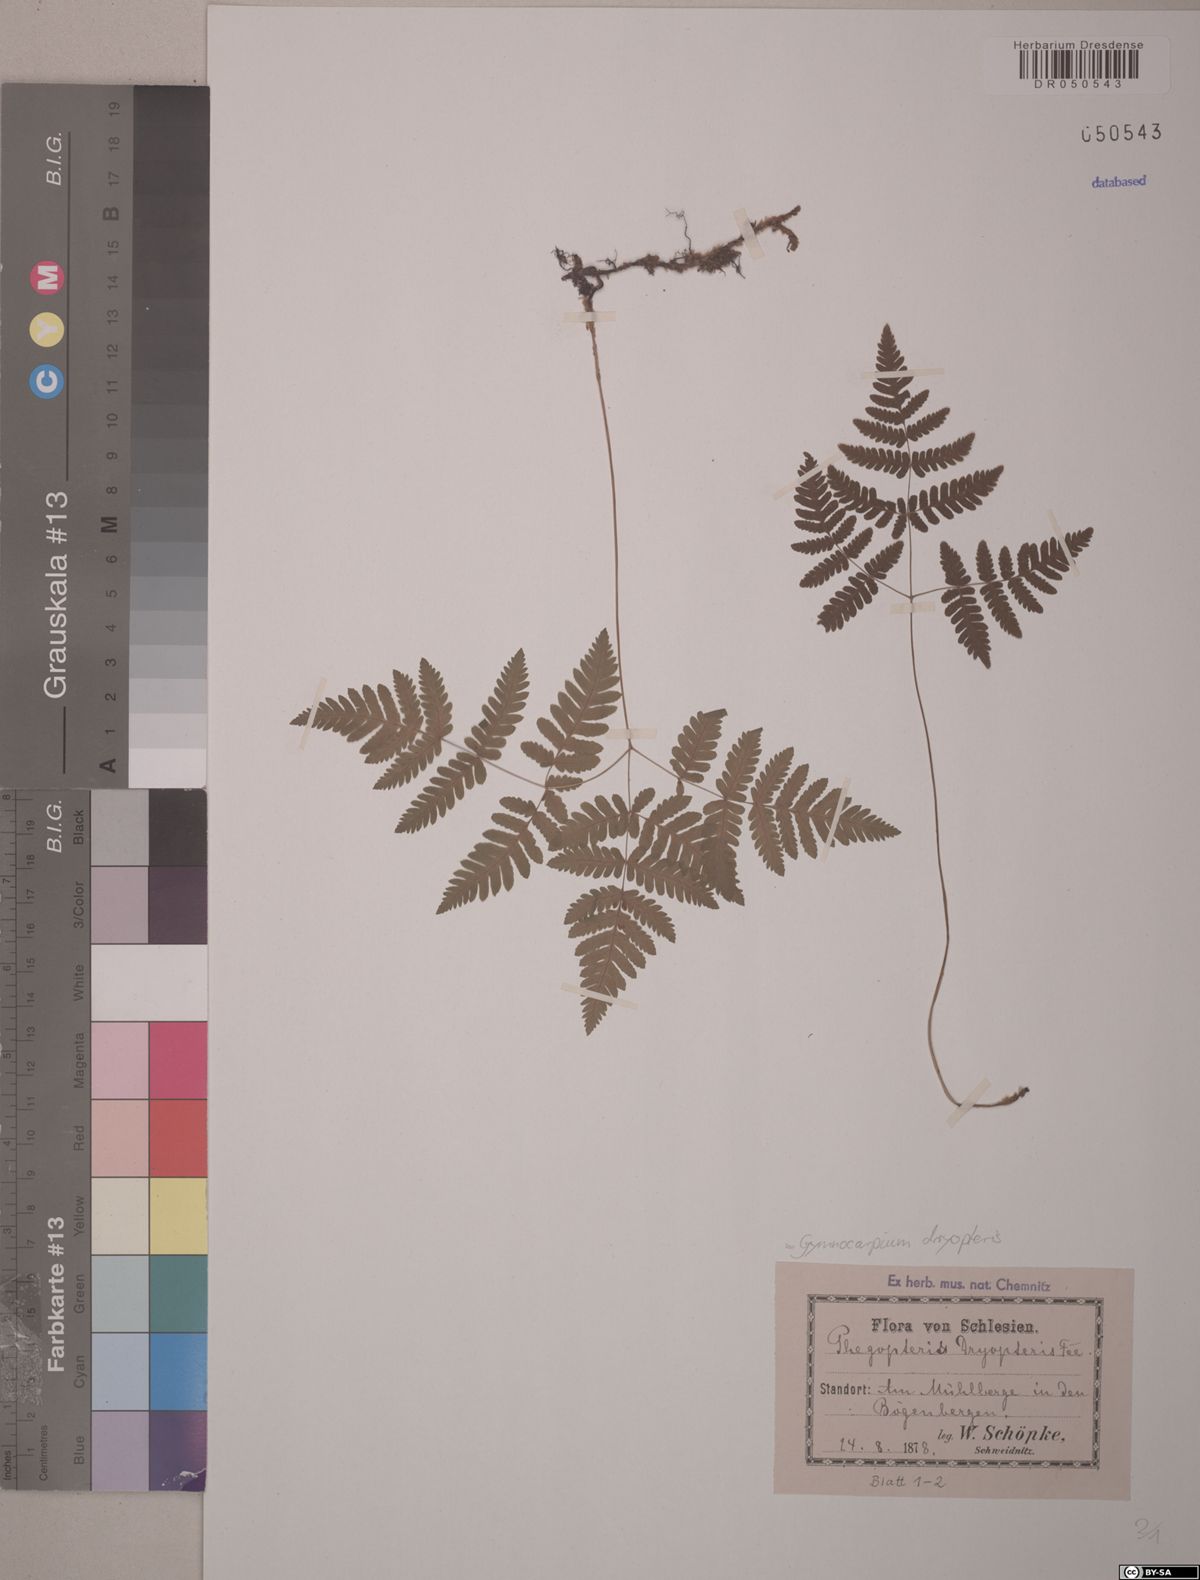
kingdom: Plantae
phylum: Tracheophyta
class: Polypodiopsida
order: Polypodiales
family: Cystopteridaceae
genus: Gymnocarpium
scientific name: Gymnocarpium dryopteris
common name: Oak fern
